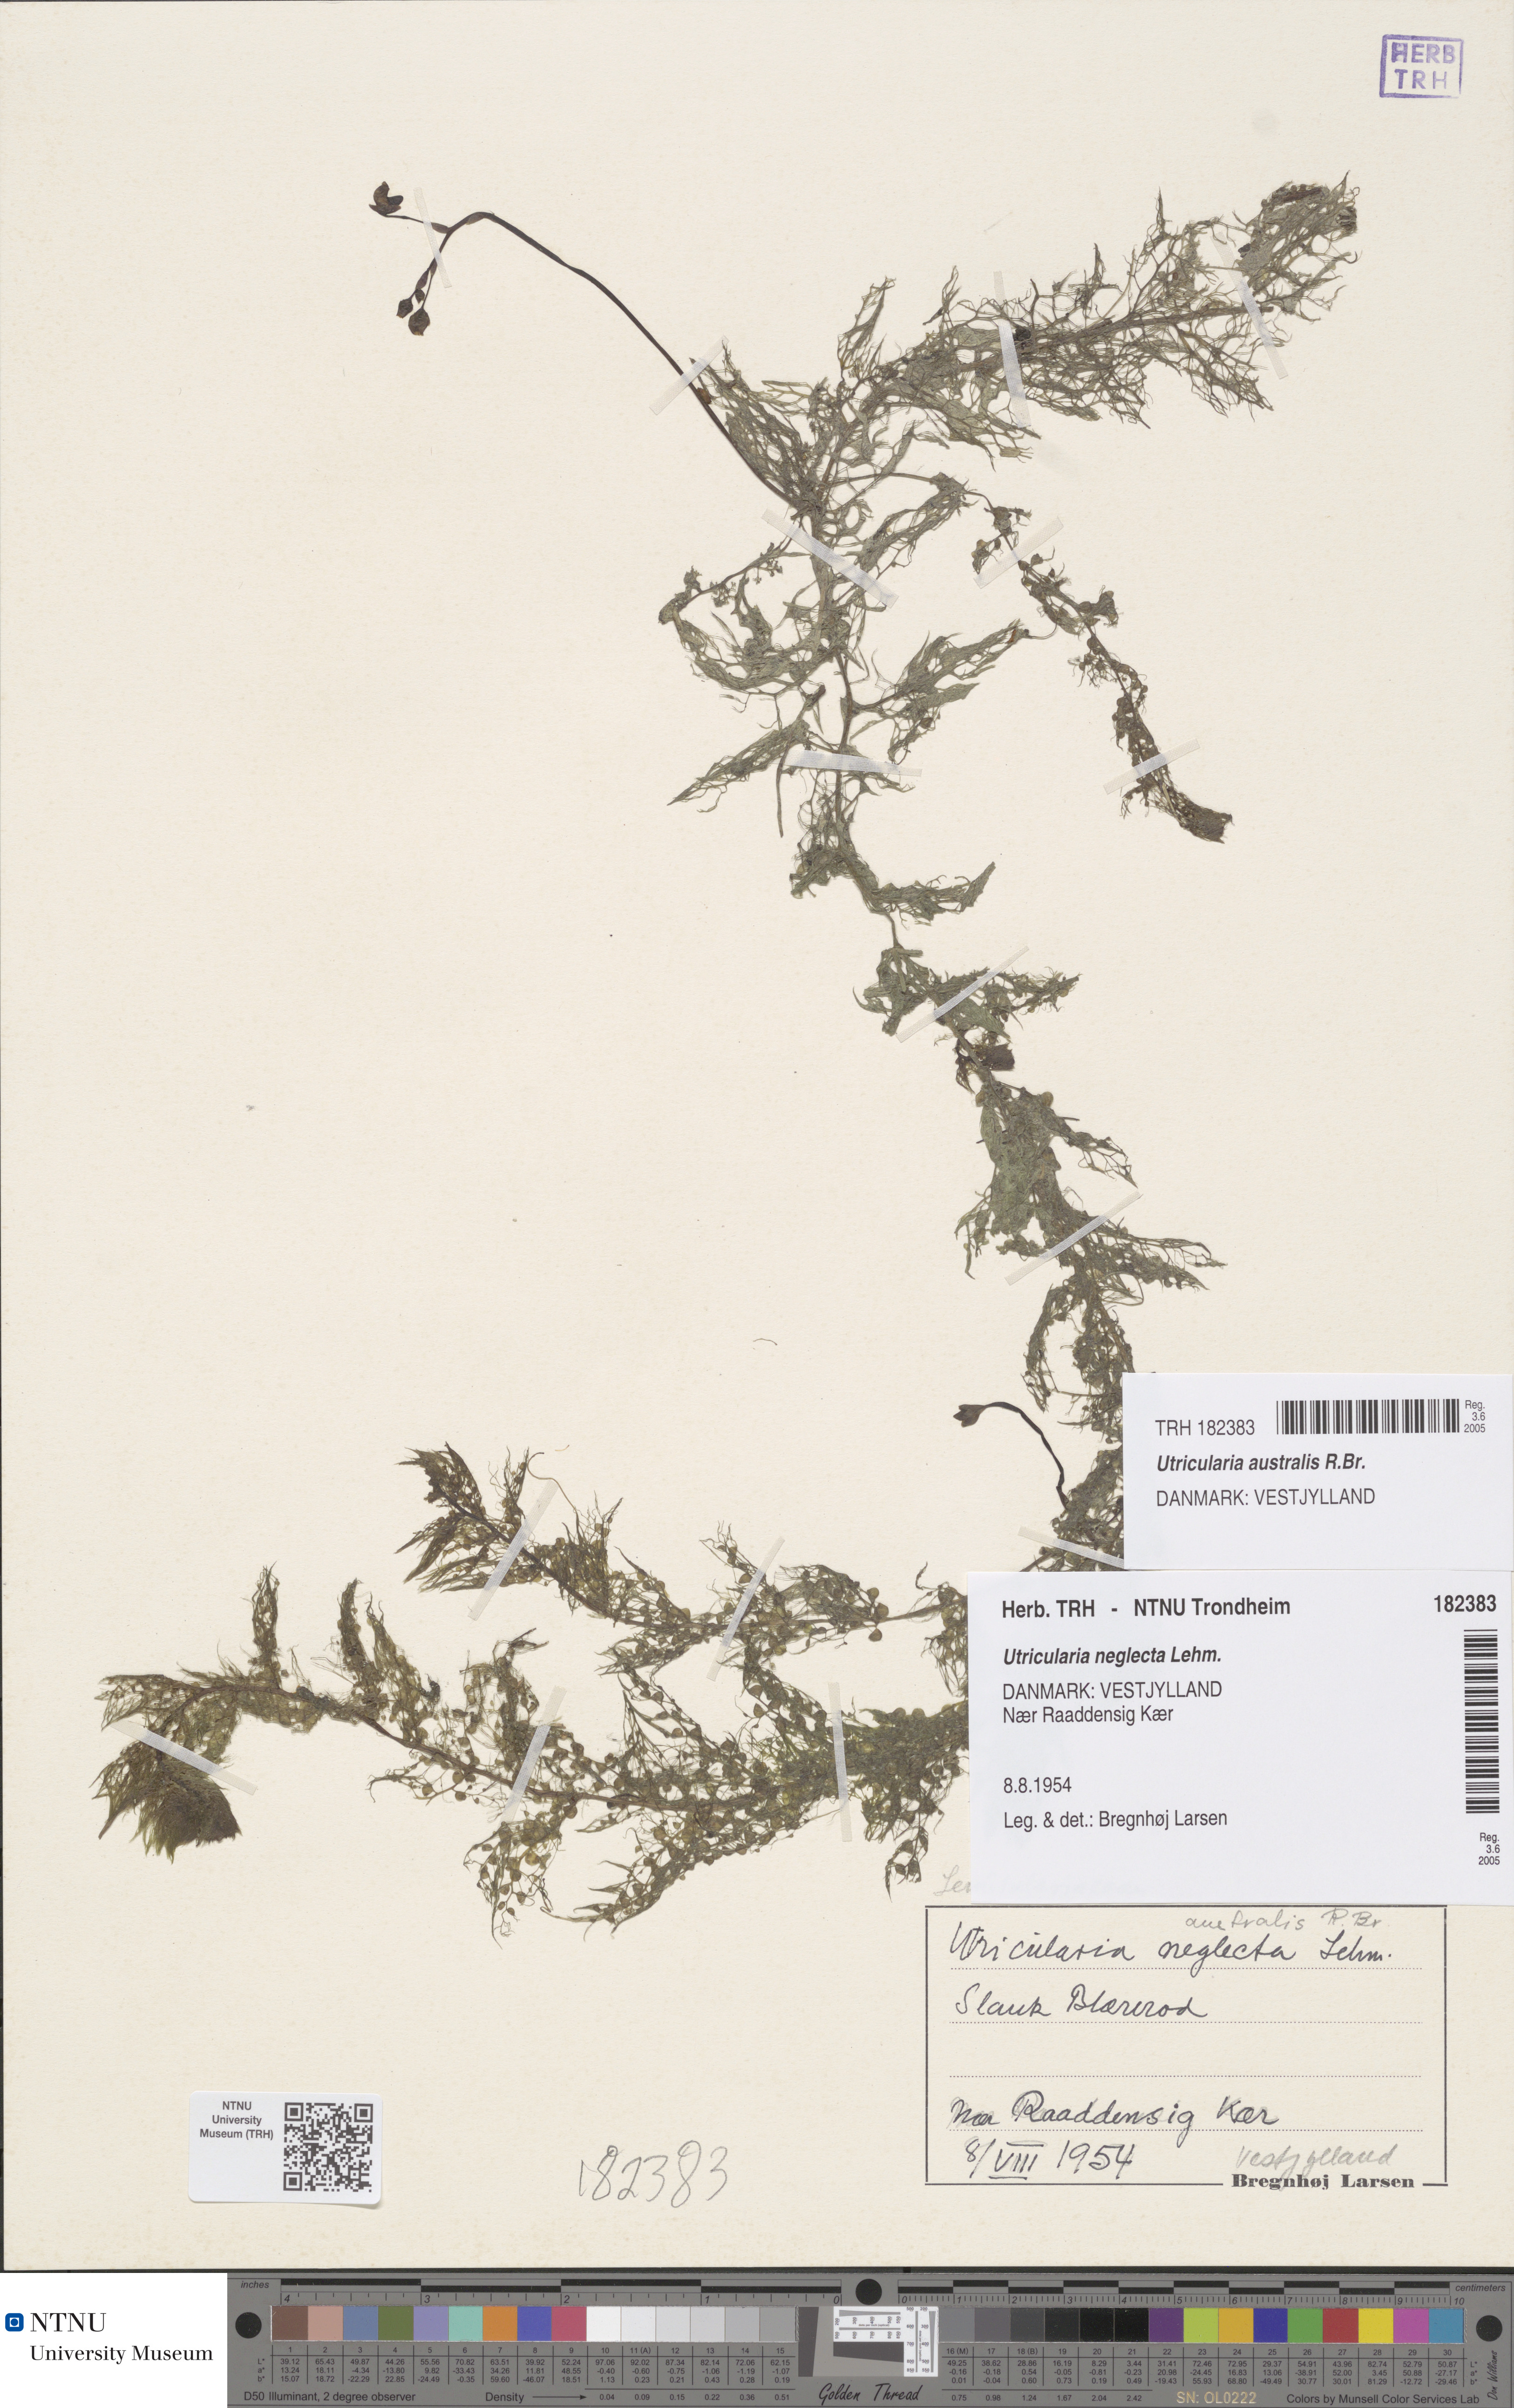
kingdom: Plantae
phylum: Tracheophyta
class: Magnoliopsida
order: Lamiales
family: Lentibulariaceae
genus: Utricularia
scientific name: Utricularia australis
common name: Bladderwort
